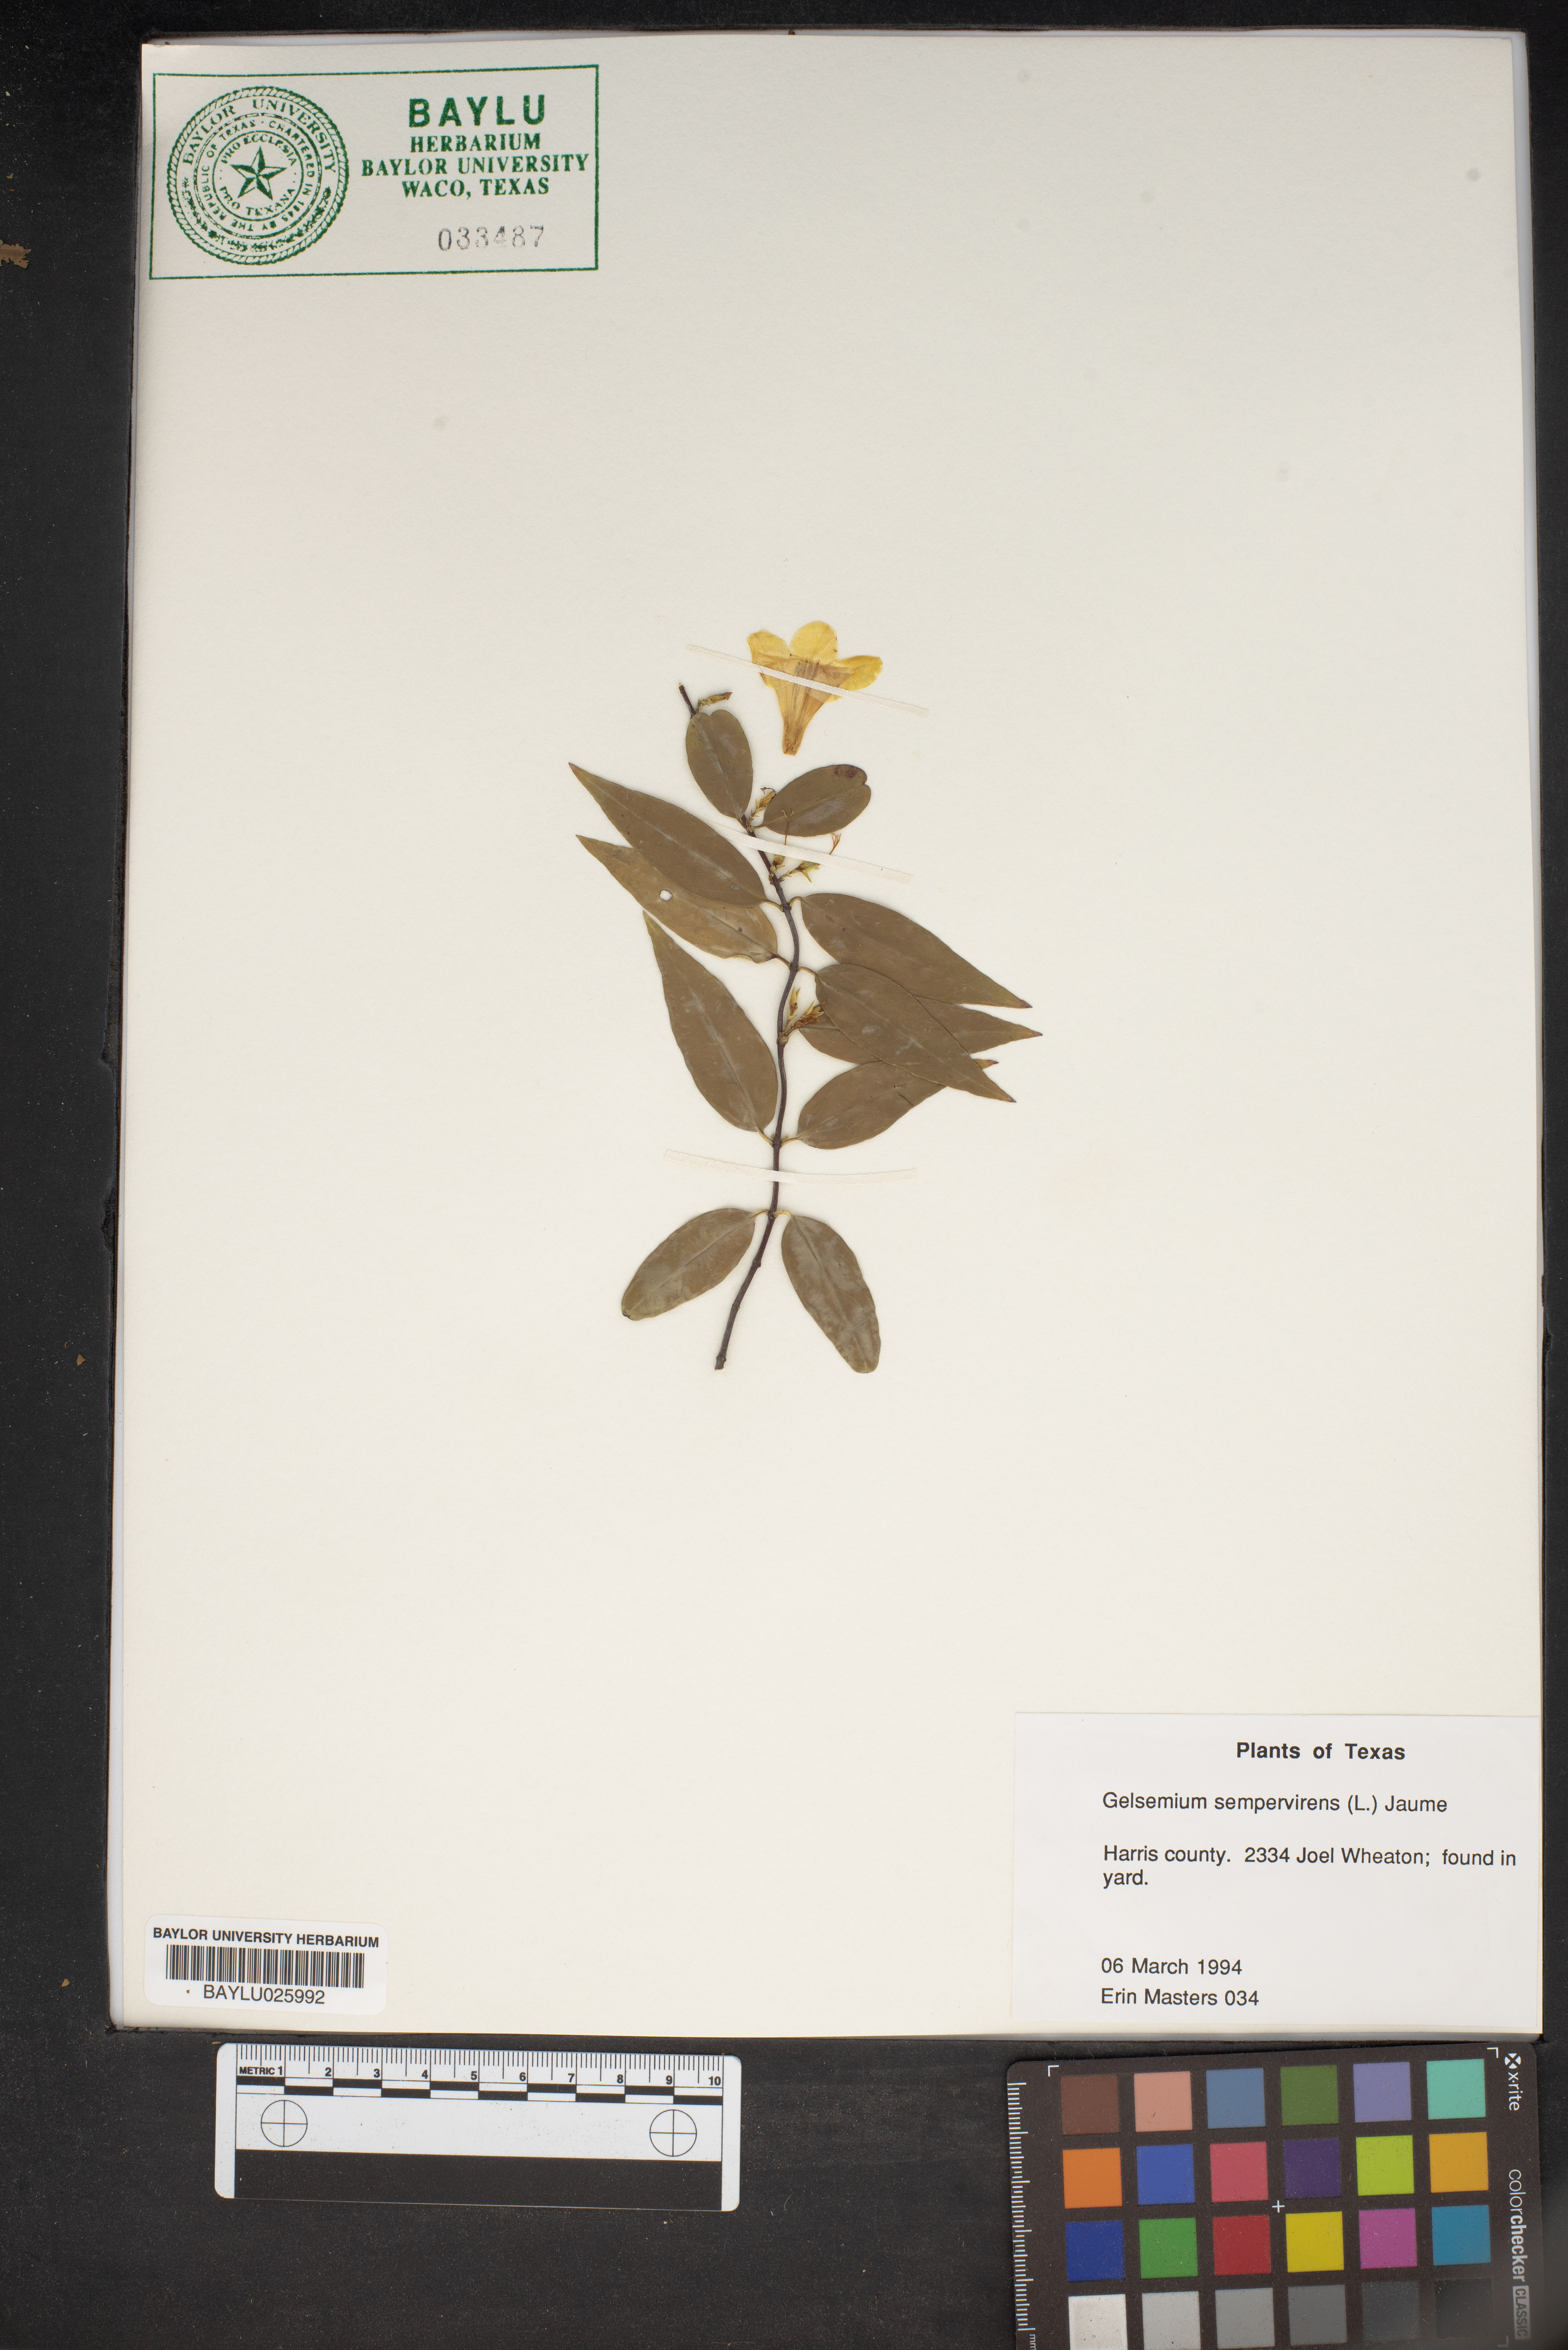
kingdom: Plantae
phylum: Tracheophyta
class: Magnoliopsida
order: Gentianales
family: Gelsemiaceae
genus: Gelsemium
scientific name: Gelsemium sempervirens
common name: Carolina-jasmine
